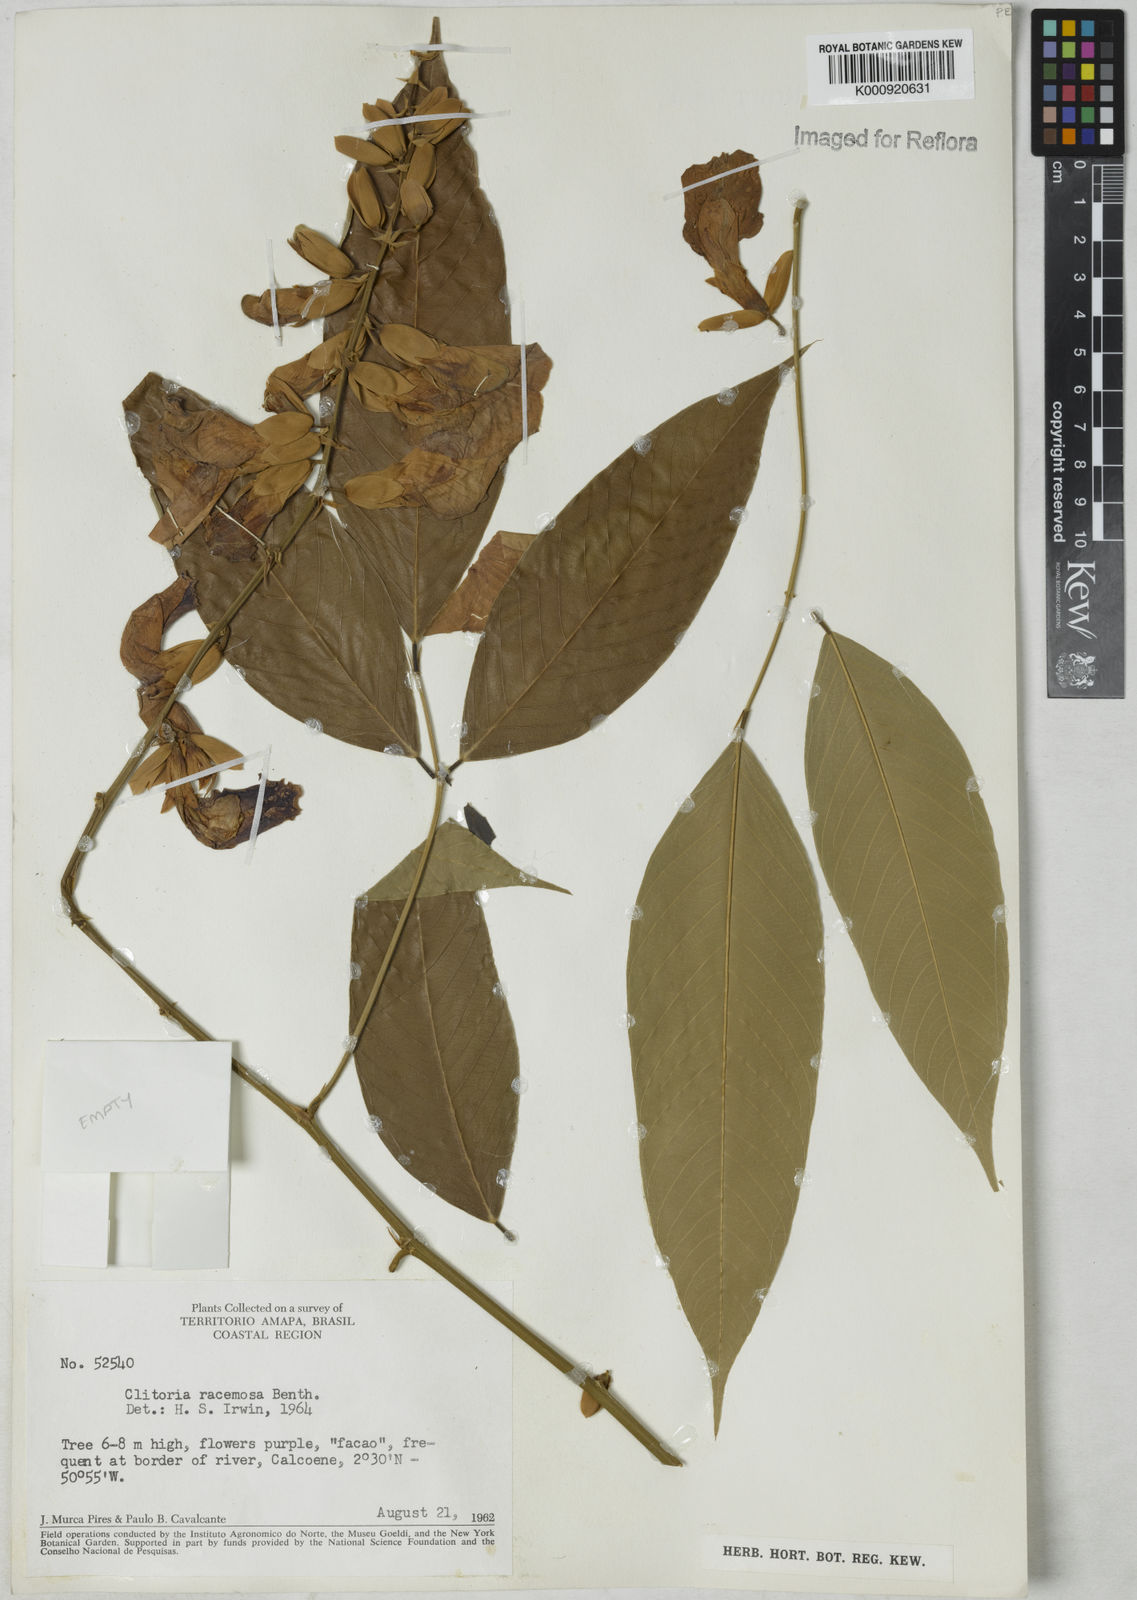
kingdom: Plantae
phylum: Tracheophyta
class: Magnoliopsida
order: Fabales
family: Fabaceae
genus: Clitoria
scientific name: Clitoria fairchildiana
